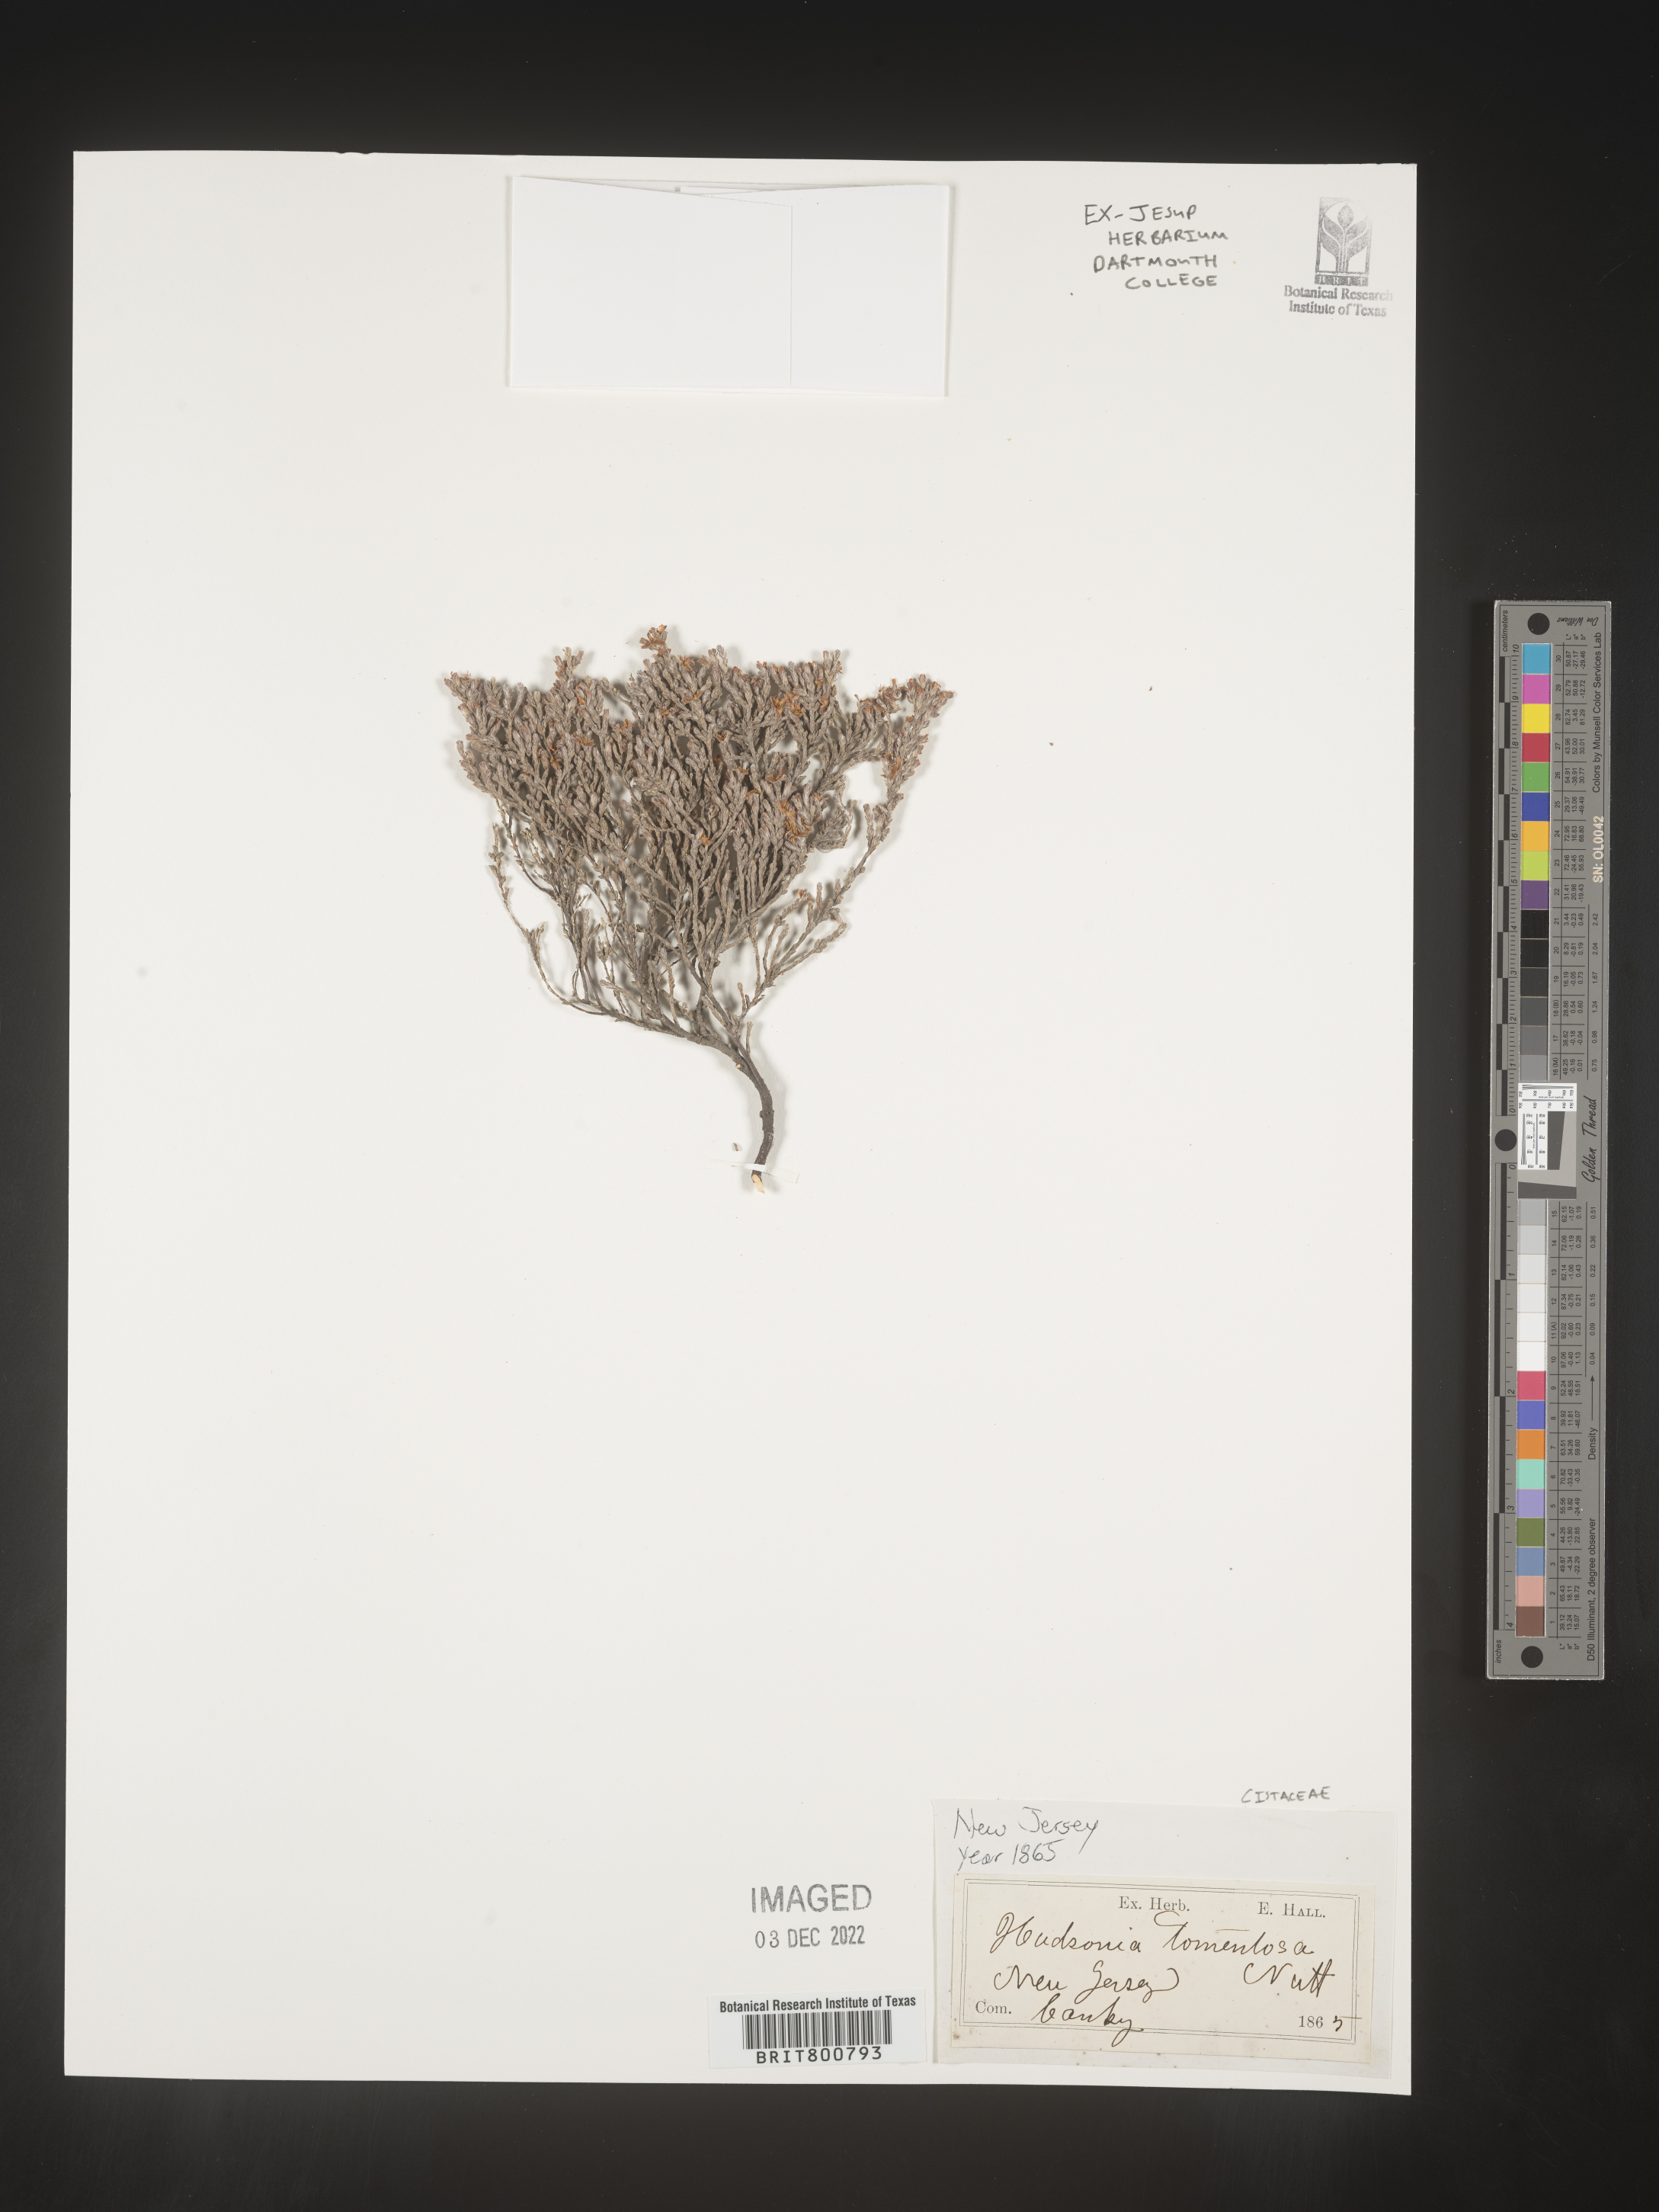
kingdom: Plantae
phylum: Tracheophyta
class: Magnoliopsida
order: Malvales
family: Cistaceae
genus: Hudsonia
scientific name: Hudsonia tomentosa
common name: Beach-heath
